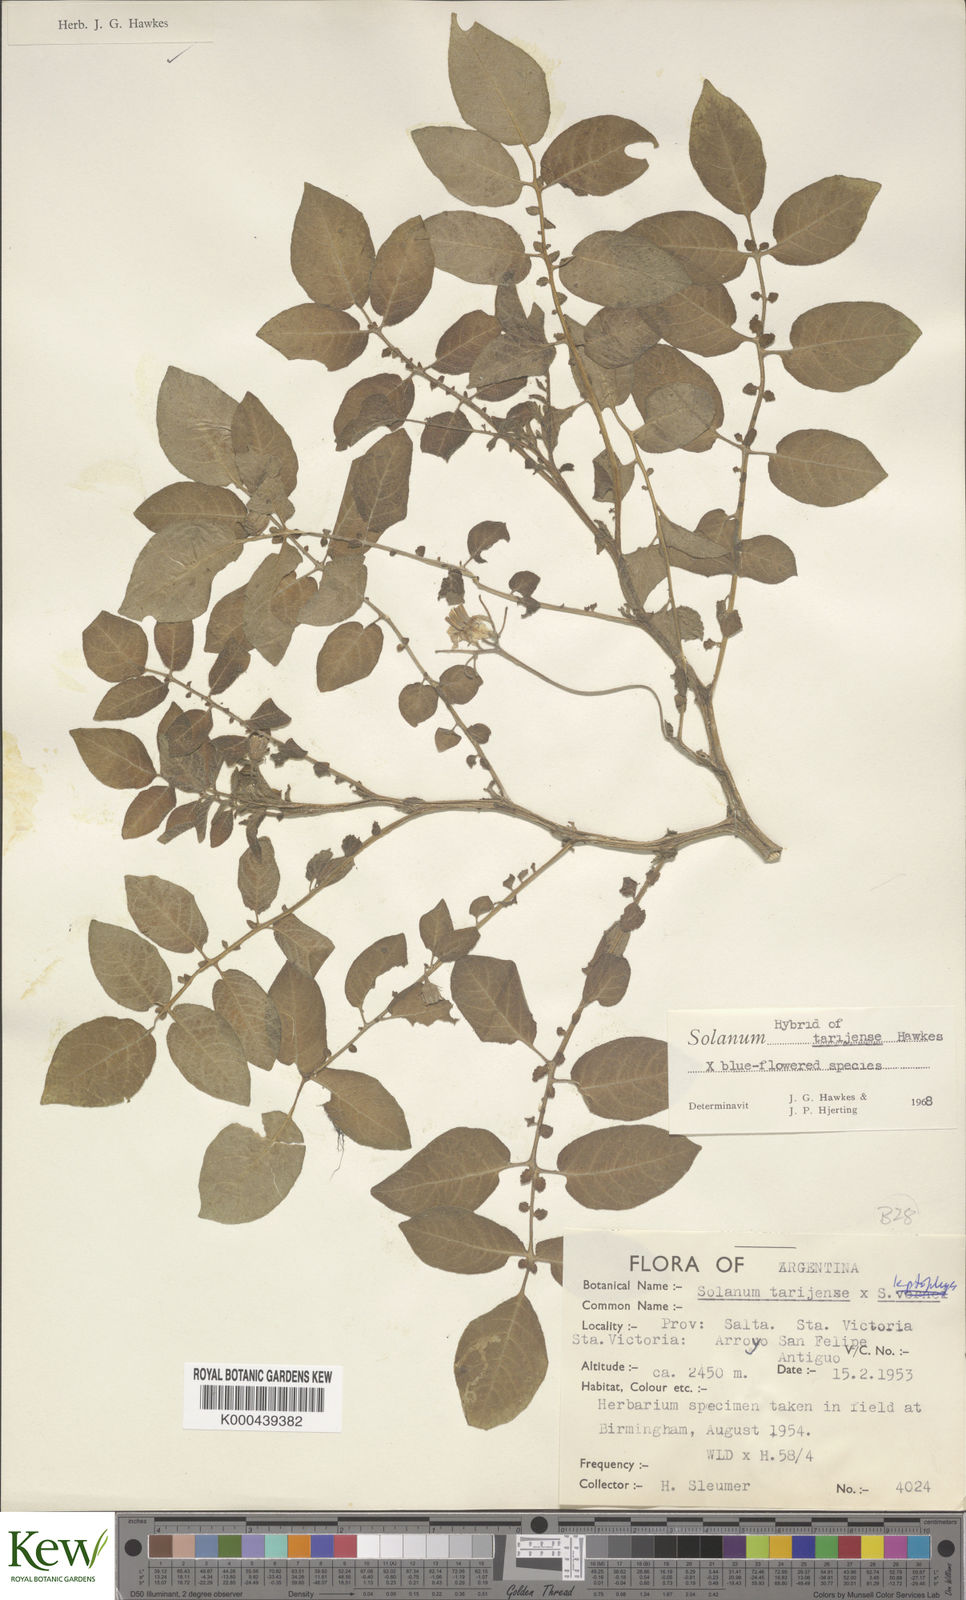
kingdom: Plantae
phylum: Tracheophyta
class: Magnoliopsida
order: Solanales
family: Solanaceae
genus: Solanum
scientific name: Solanum tarijense
